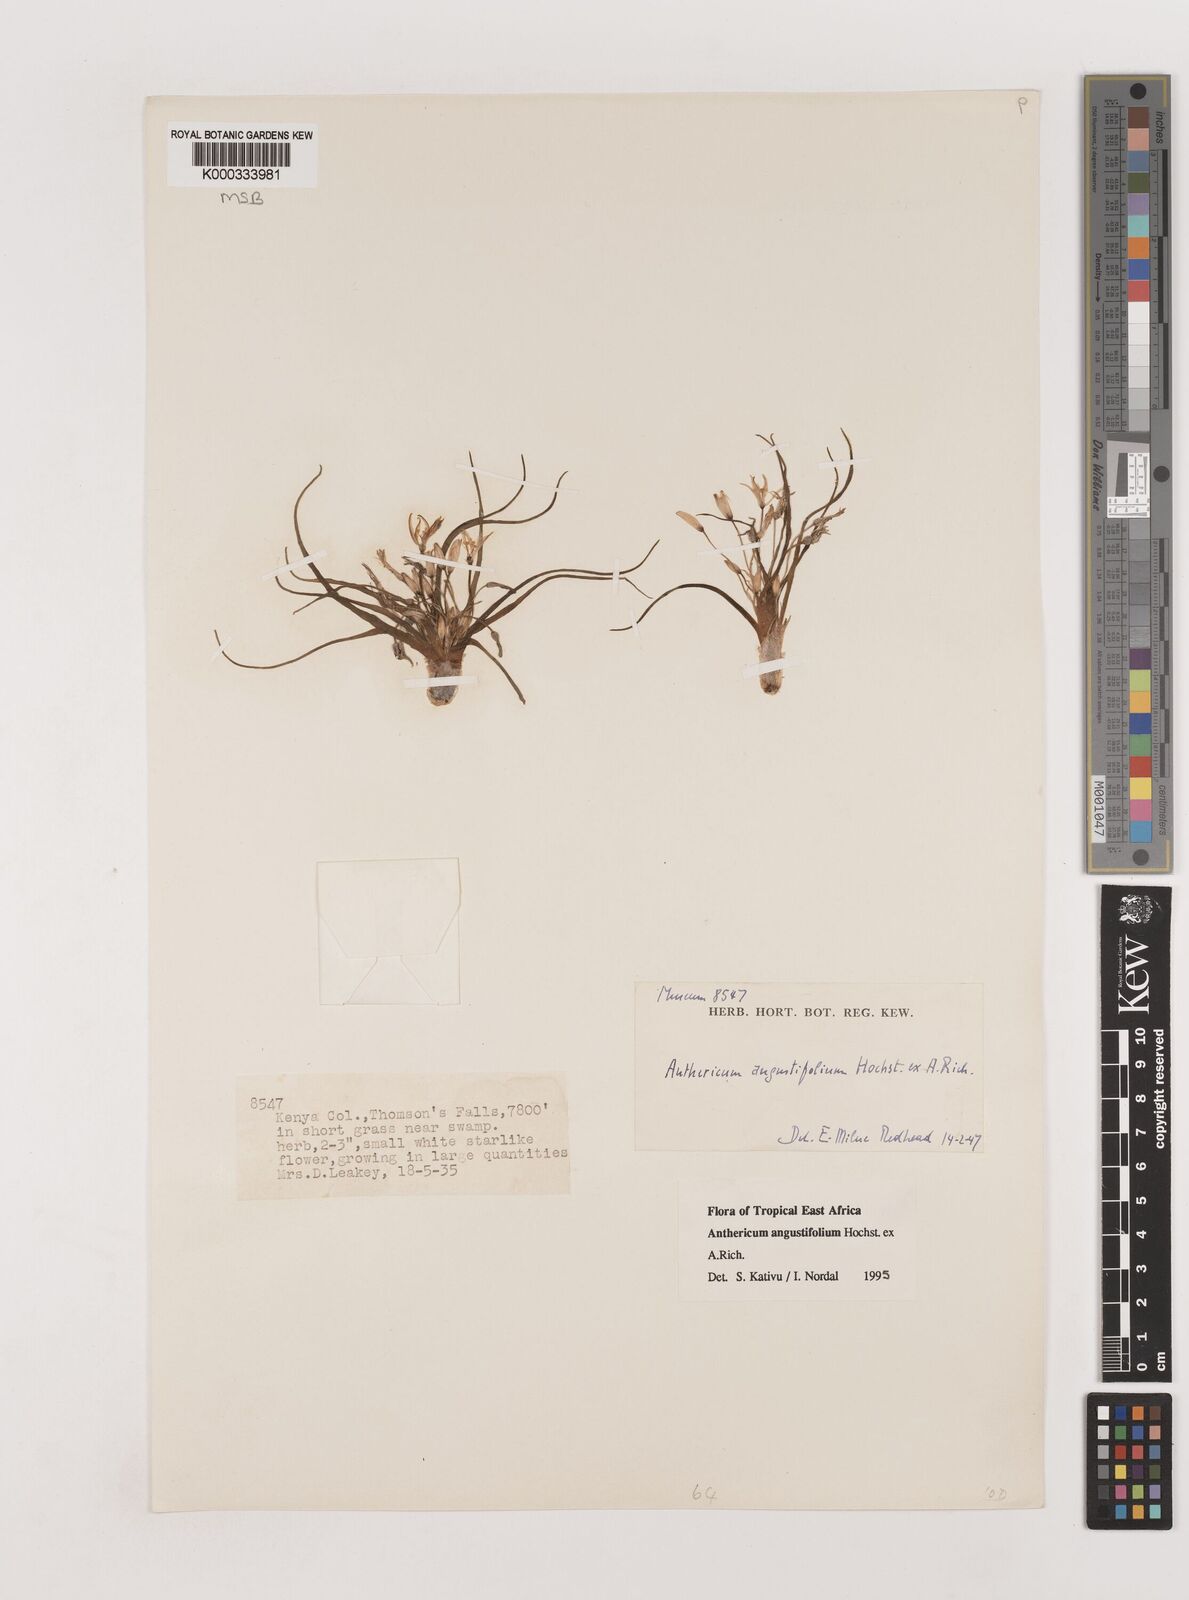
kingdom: Plantae
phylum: Tracheophyta
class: Liliopsida
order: Asparagales
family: Asparagaceae
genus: Anthericum
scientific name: Anthericum angustifolium
